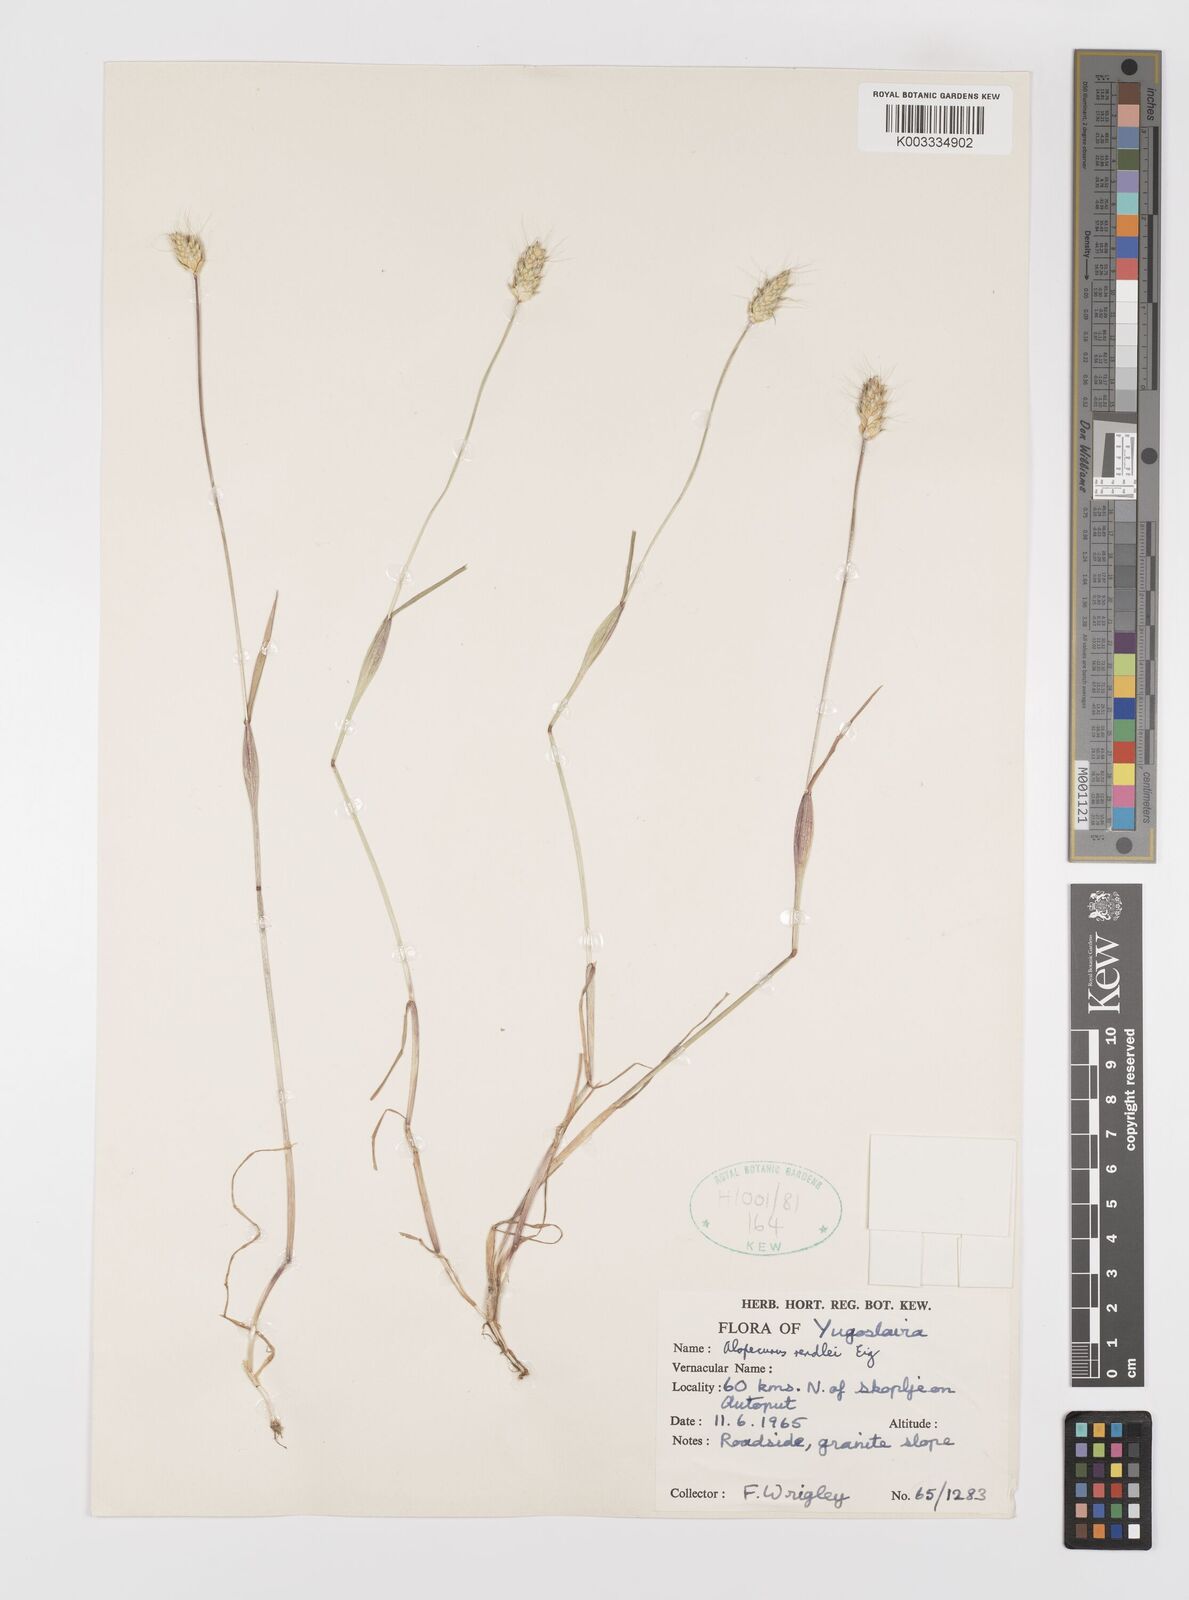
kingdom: Plantae
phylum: Tracheophyta
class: Liliopsida
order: Poales
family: Poaceae
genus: Alopecurus
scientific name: Alopecurus rendlei
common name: Rendle's meadow foxtail
